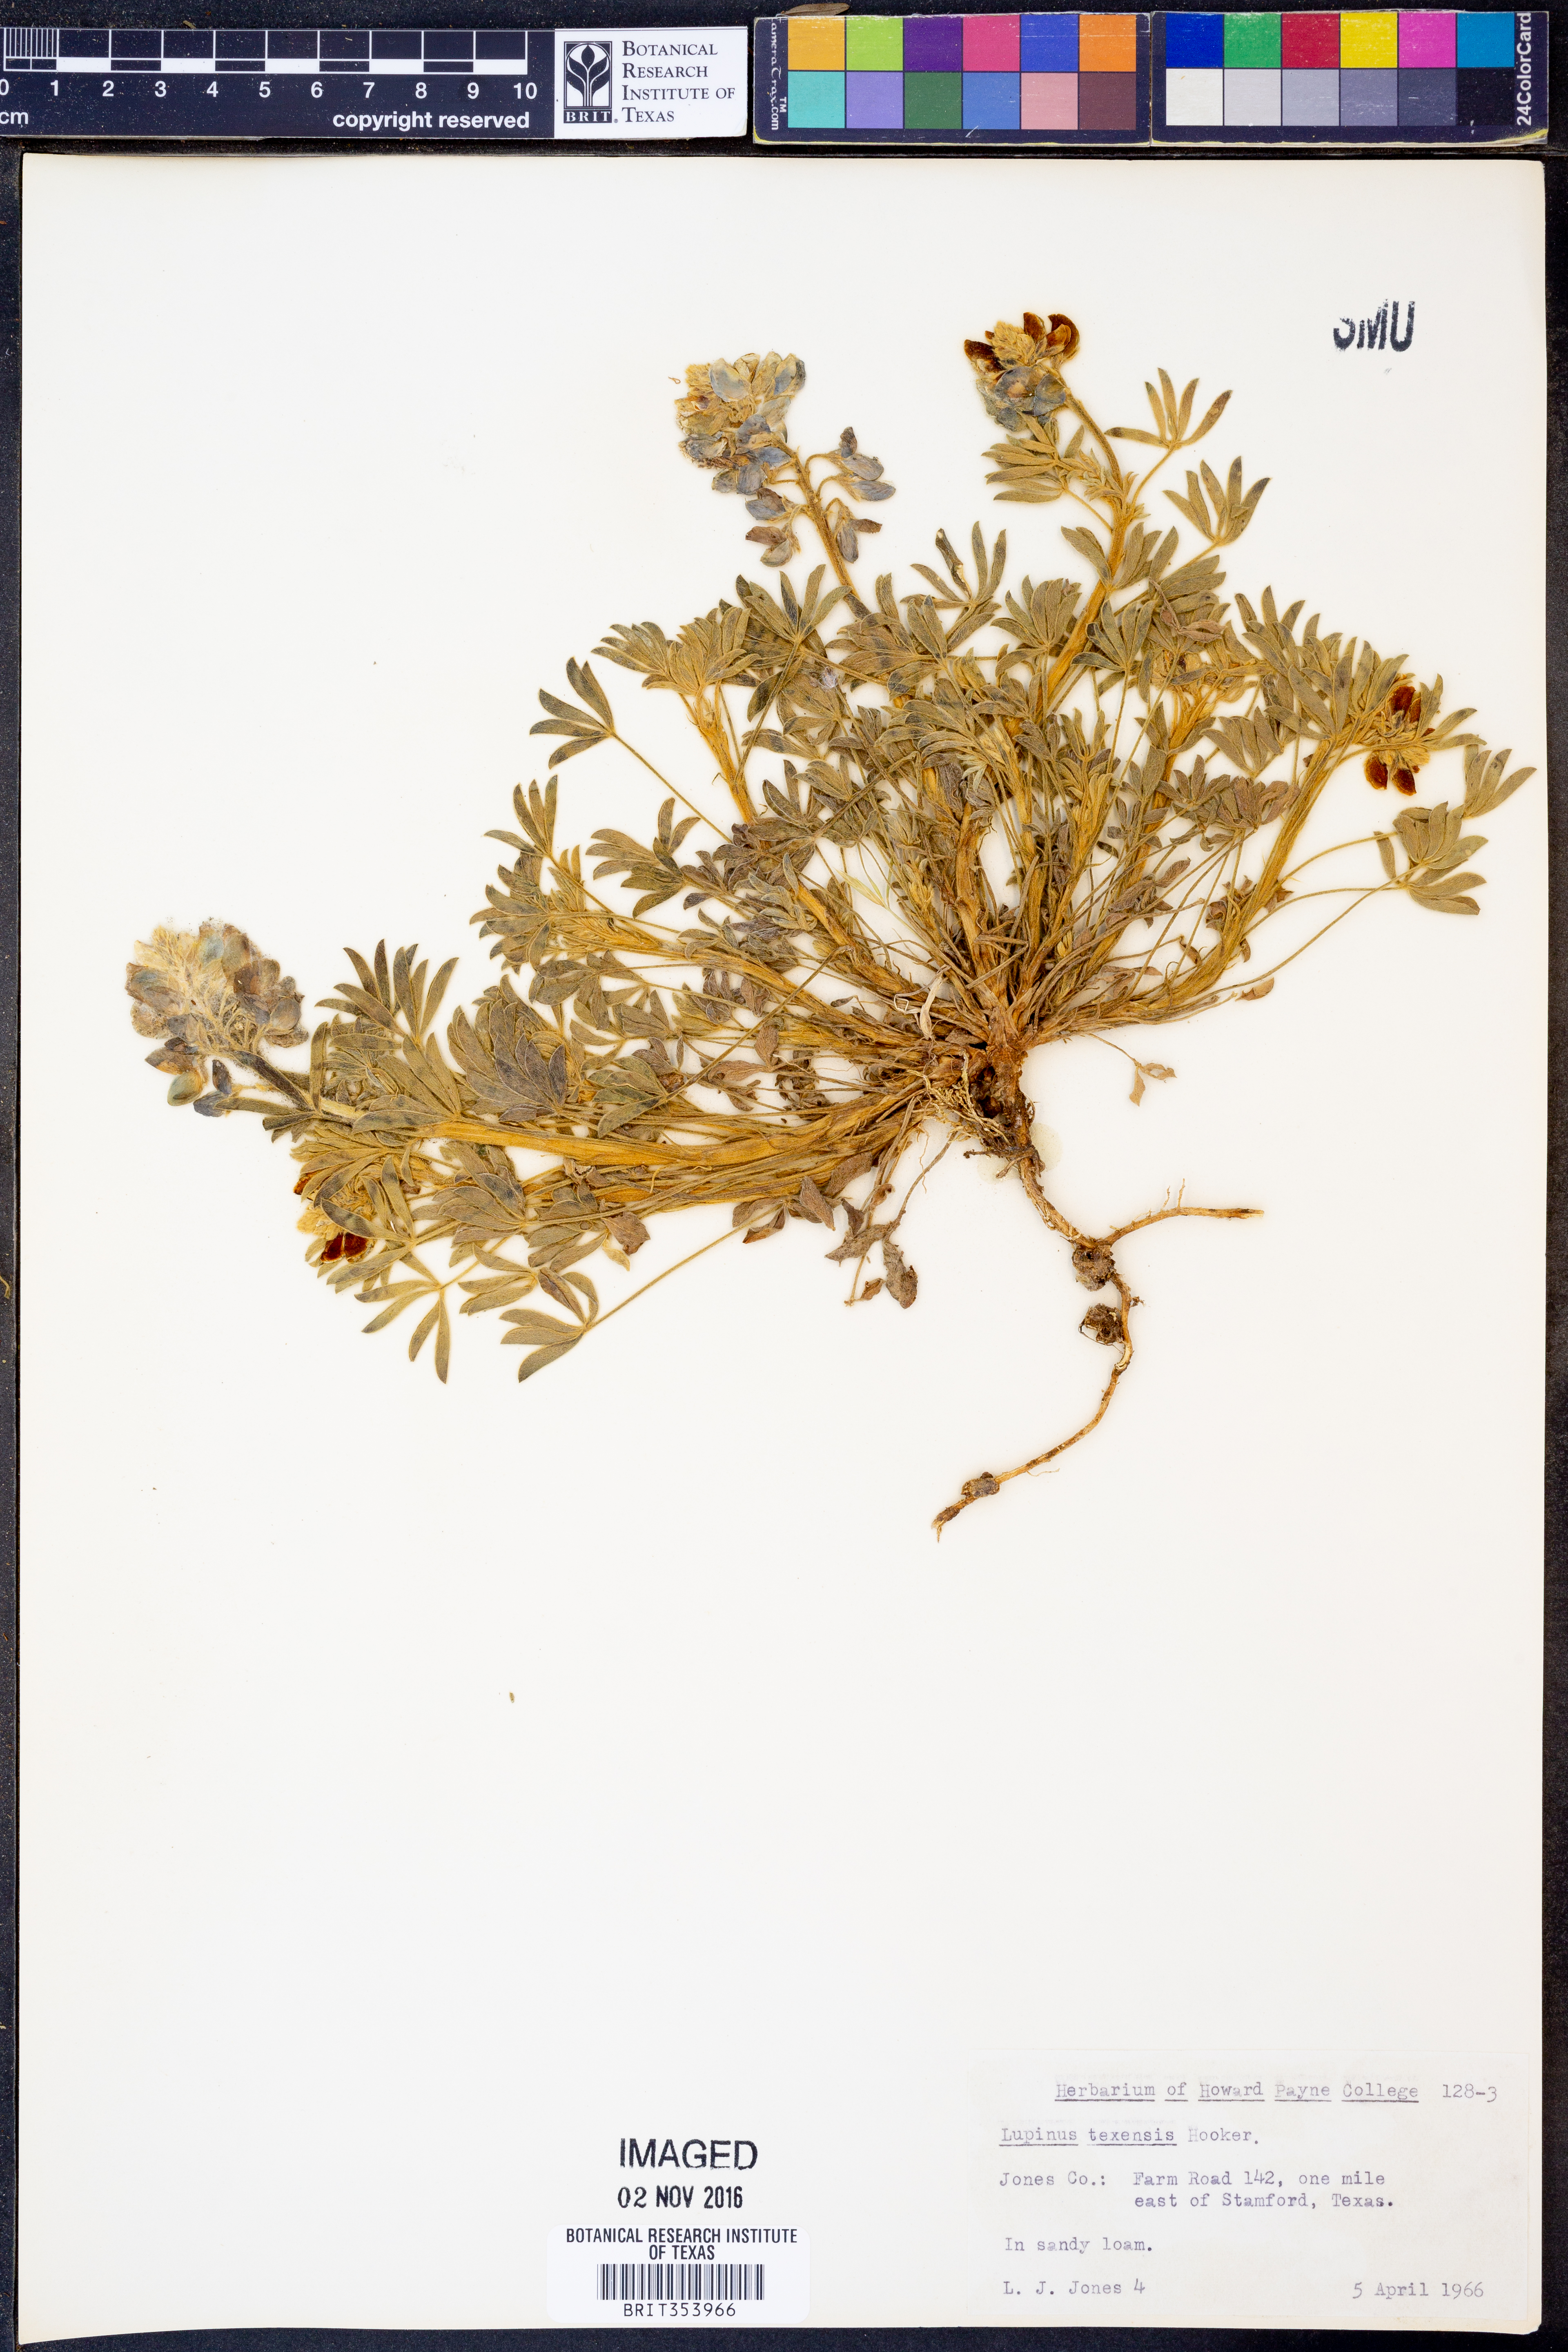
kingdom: Plantae
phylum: Tracheophyta
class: Magnoliopsida
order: Fabales
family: Fabaceae
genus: Lupinus
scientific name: Lupinus texensis
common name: Texas bluebonnet
